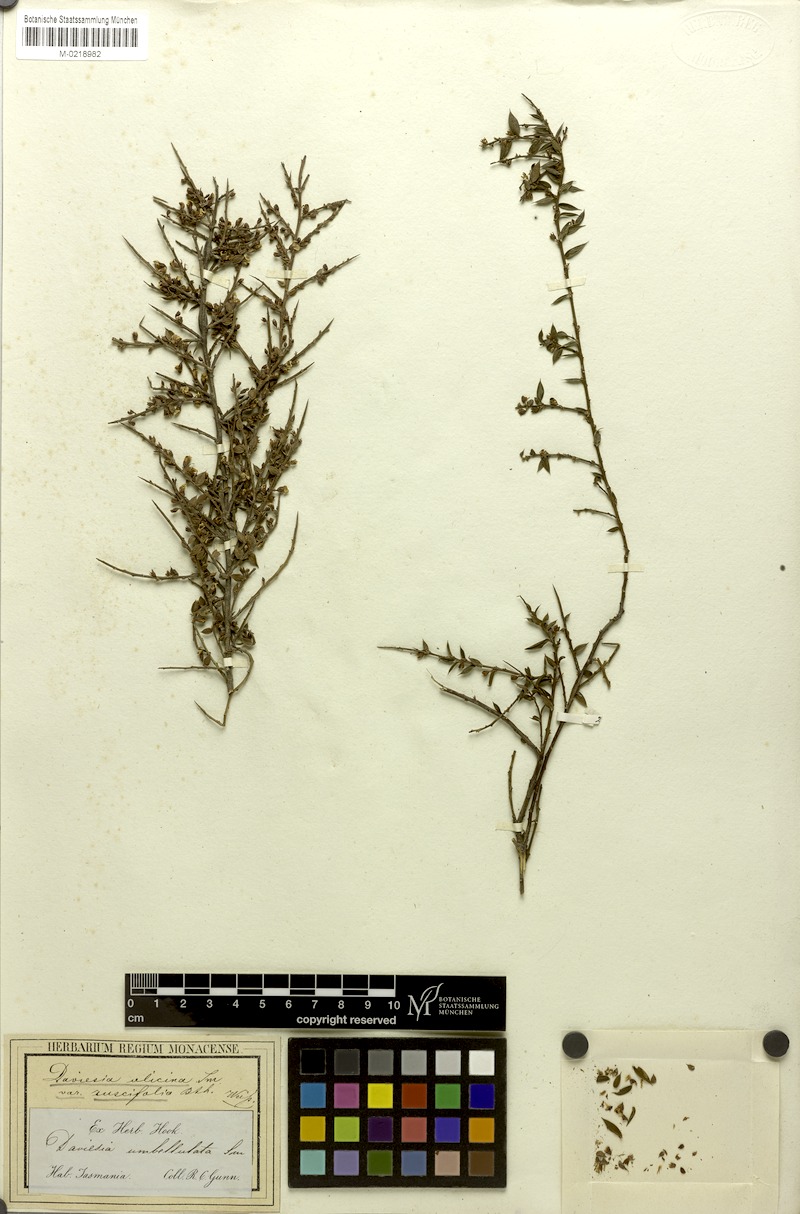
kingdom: Plantae
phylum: Tracheophyta
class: Magnoliopsida
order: Fabales
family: Fabaceae
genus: Daviesia
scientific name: Daviesia ulicifolia
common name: Gorse bitter-pea
